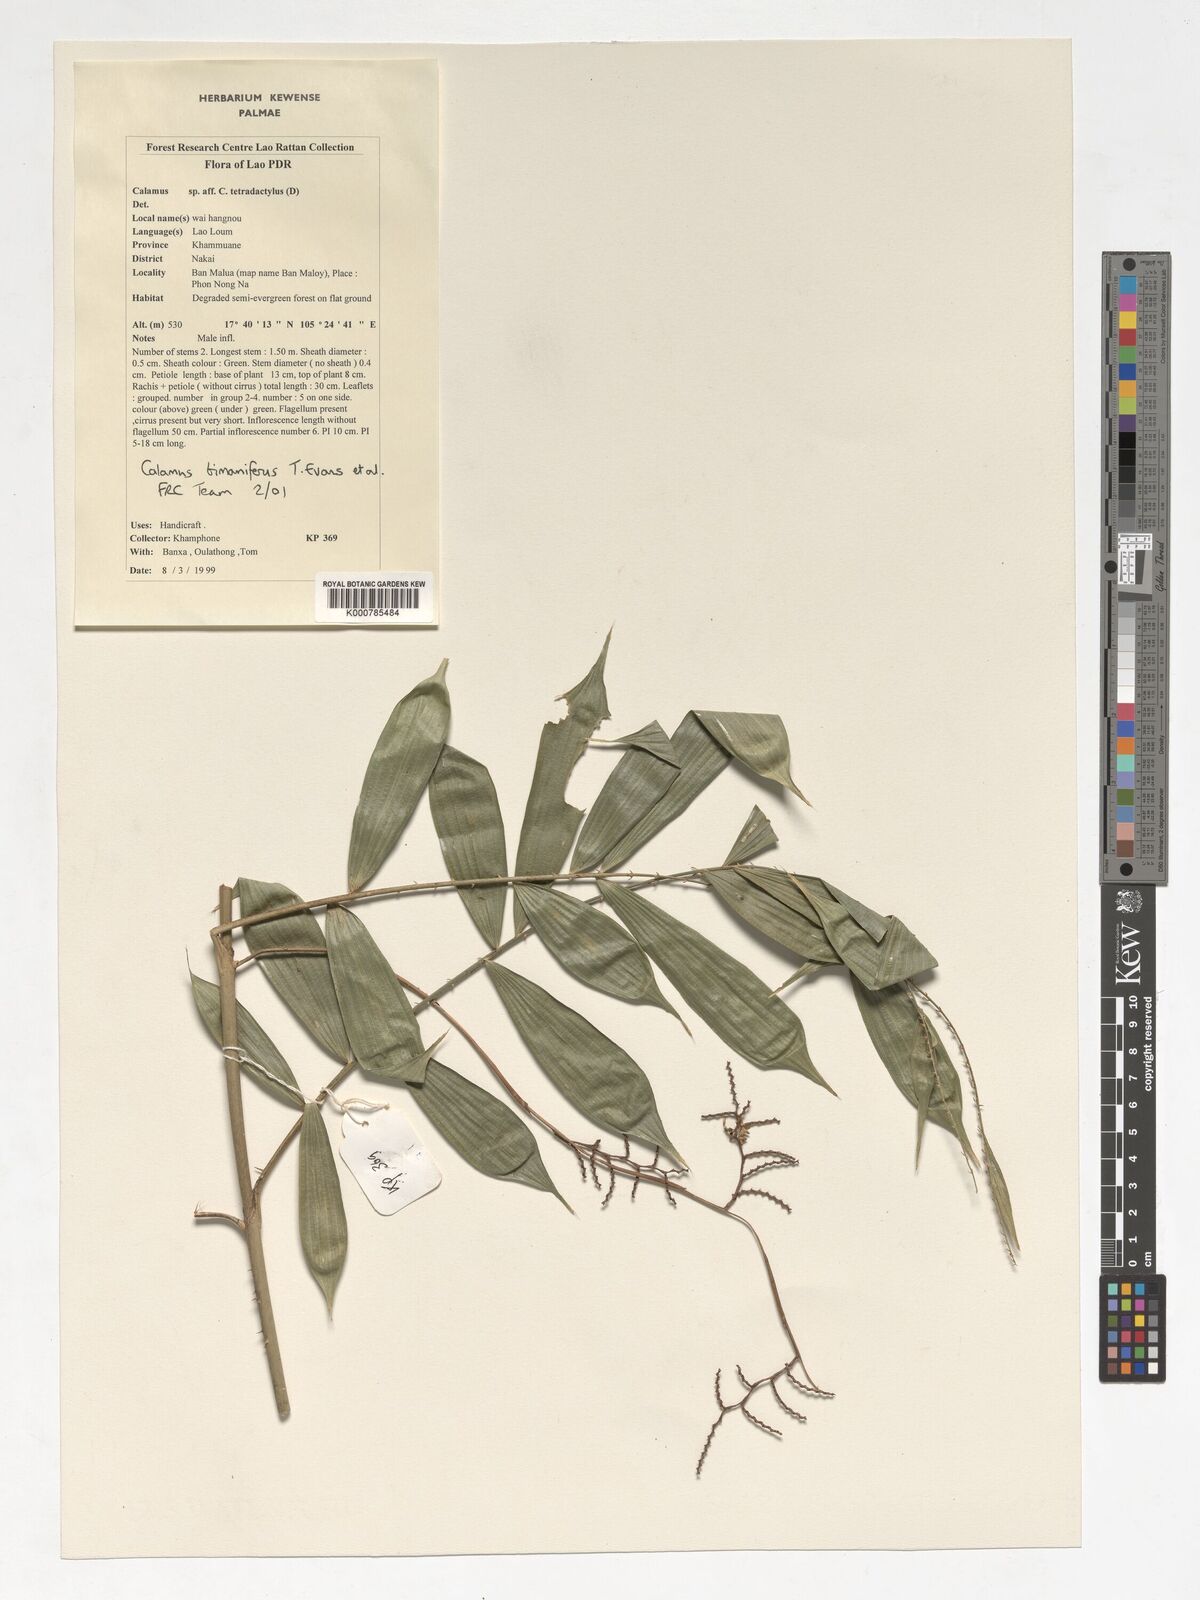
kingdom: Plantae
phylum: Tracheophyta
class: Liliopsida
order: Arecales
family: Arecaceae
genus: Calamus
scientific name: Calamus bimanifer
